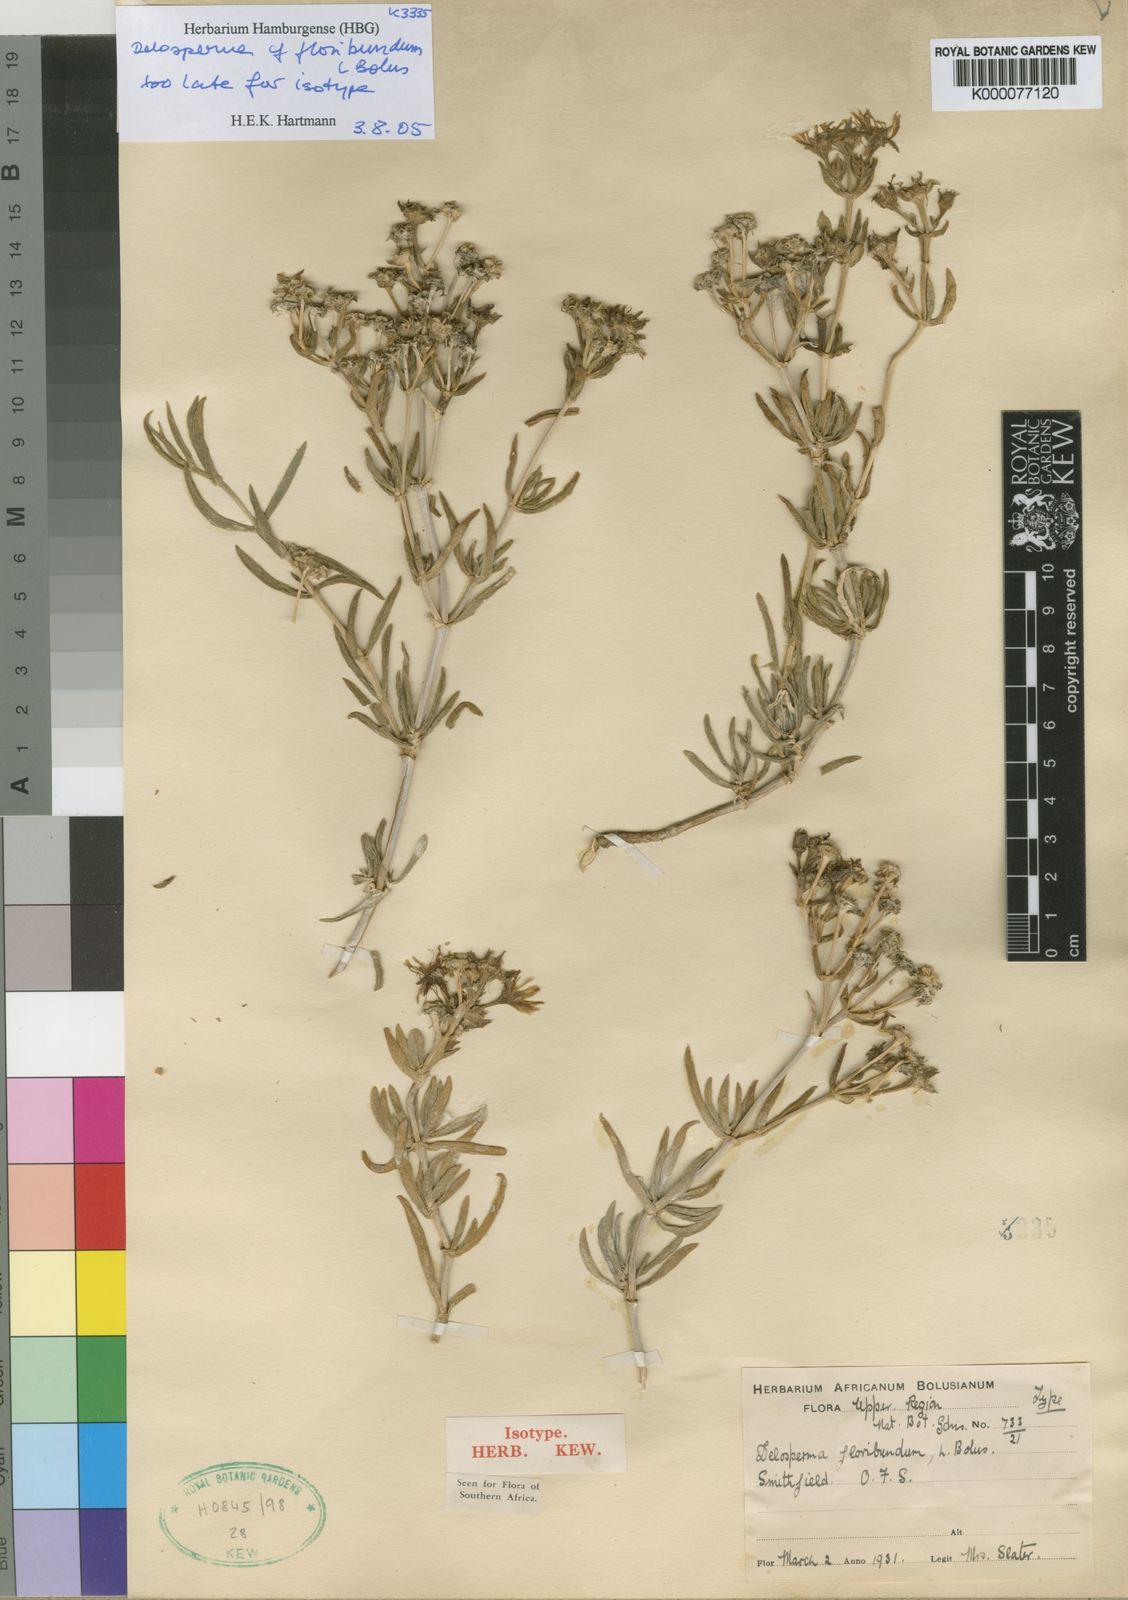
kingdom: Plantae
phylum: Tracheophyta
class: Magnoliopsida
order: Caryophyllales
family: Aizoaceae
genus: Delosperma
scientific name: Delosperma floribundum
